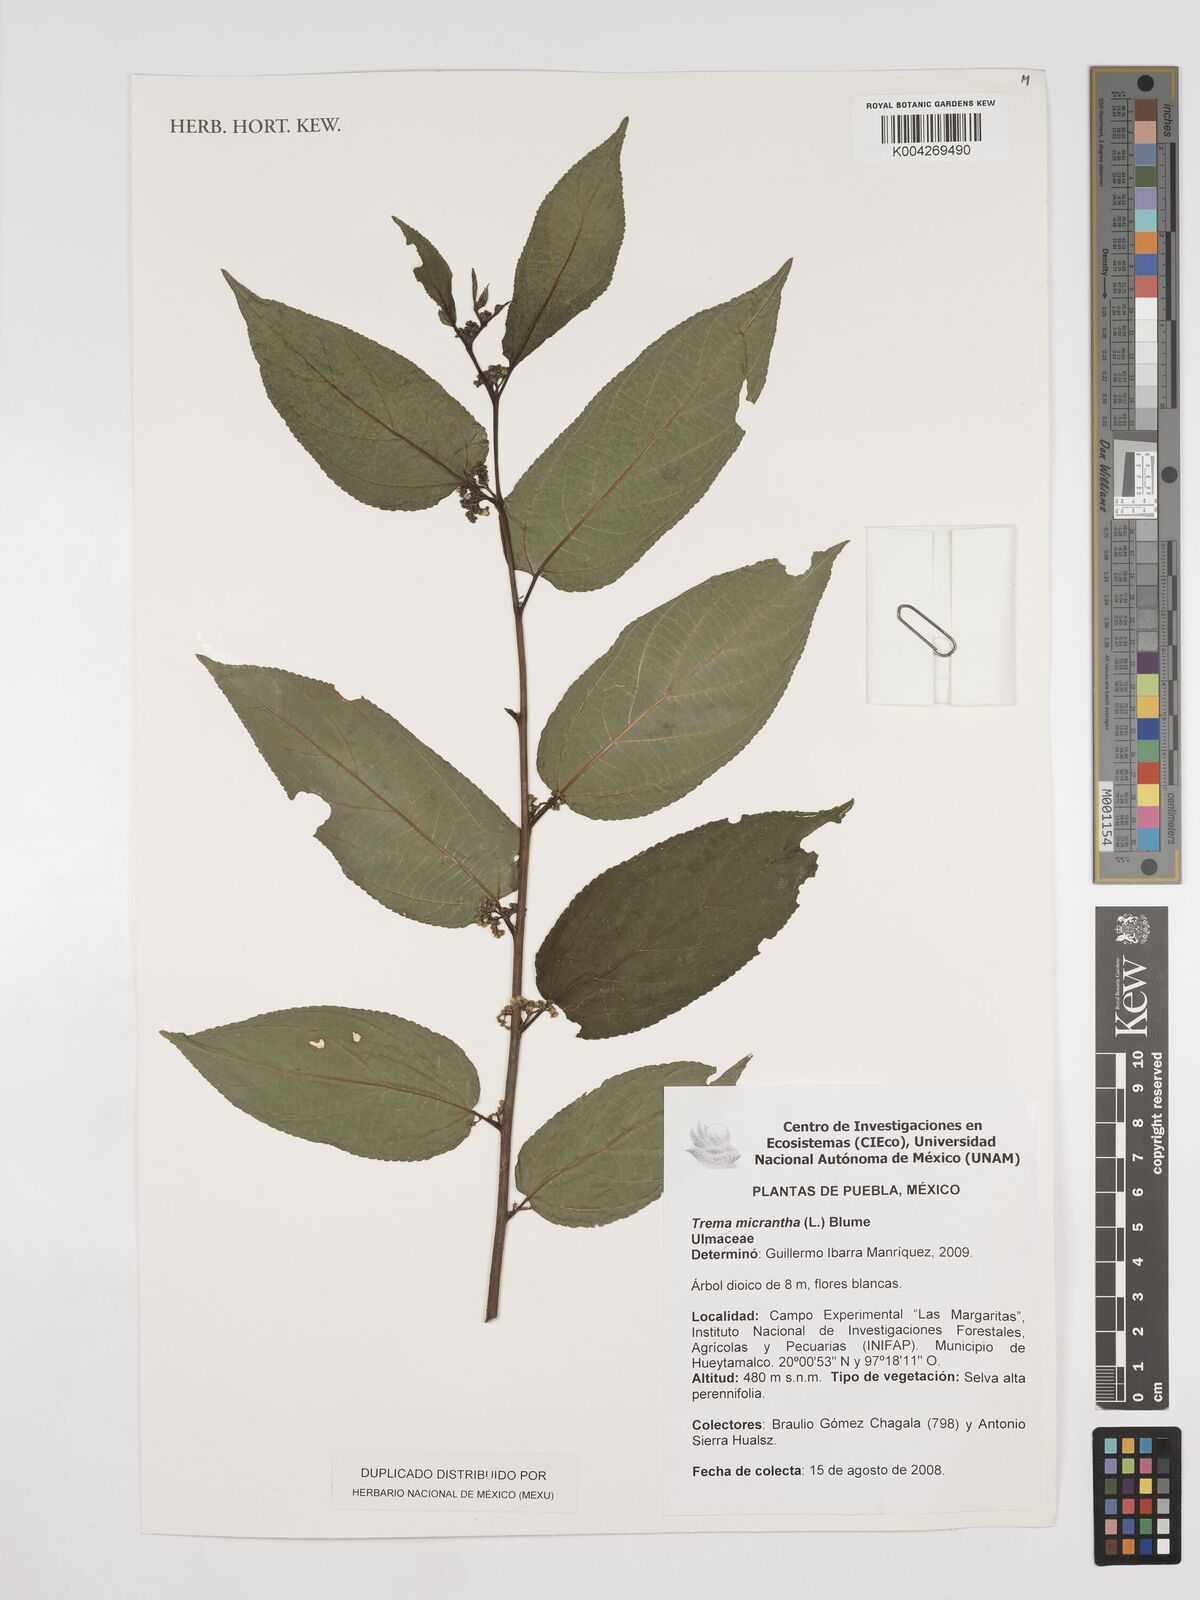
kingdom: Plantae
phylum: Tracheophyta
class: Magnoliopsida
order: Rosales
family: Cannabaceae
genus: Trema
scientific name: Trema micranthum
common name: Jamaican nettletree
